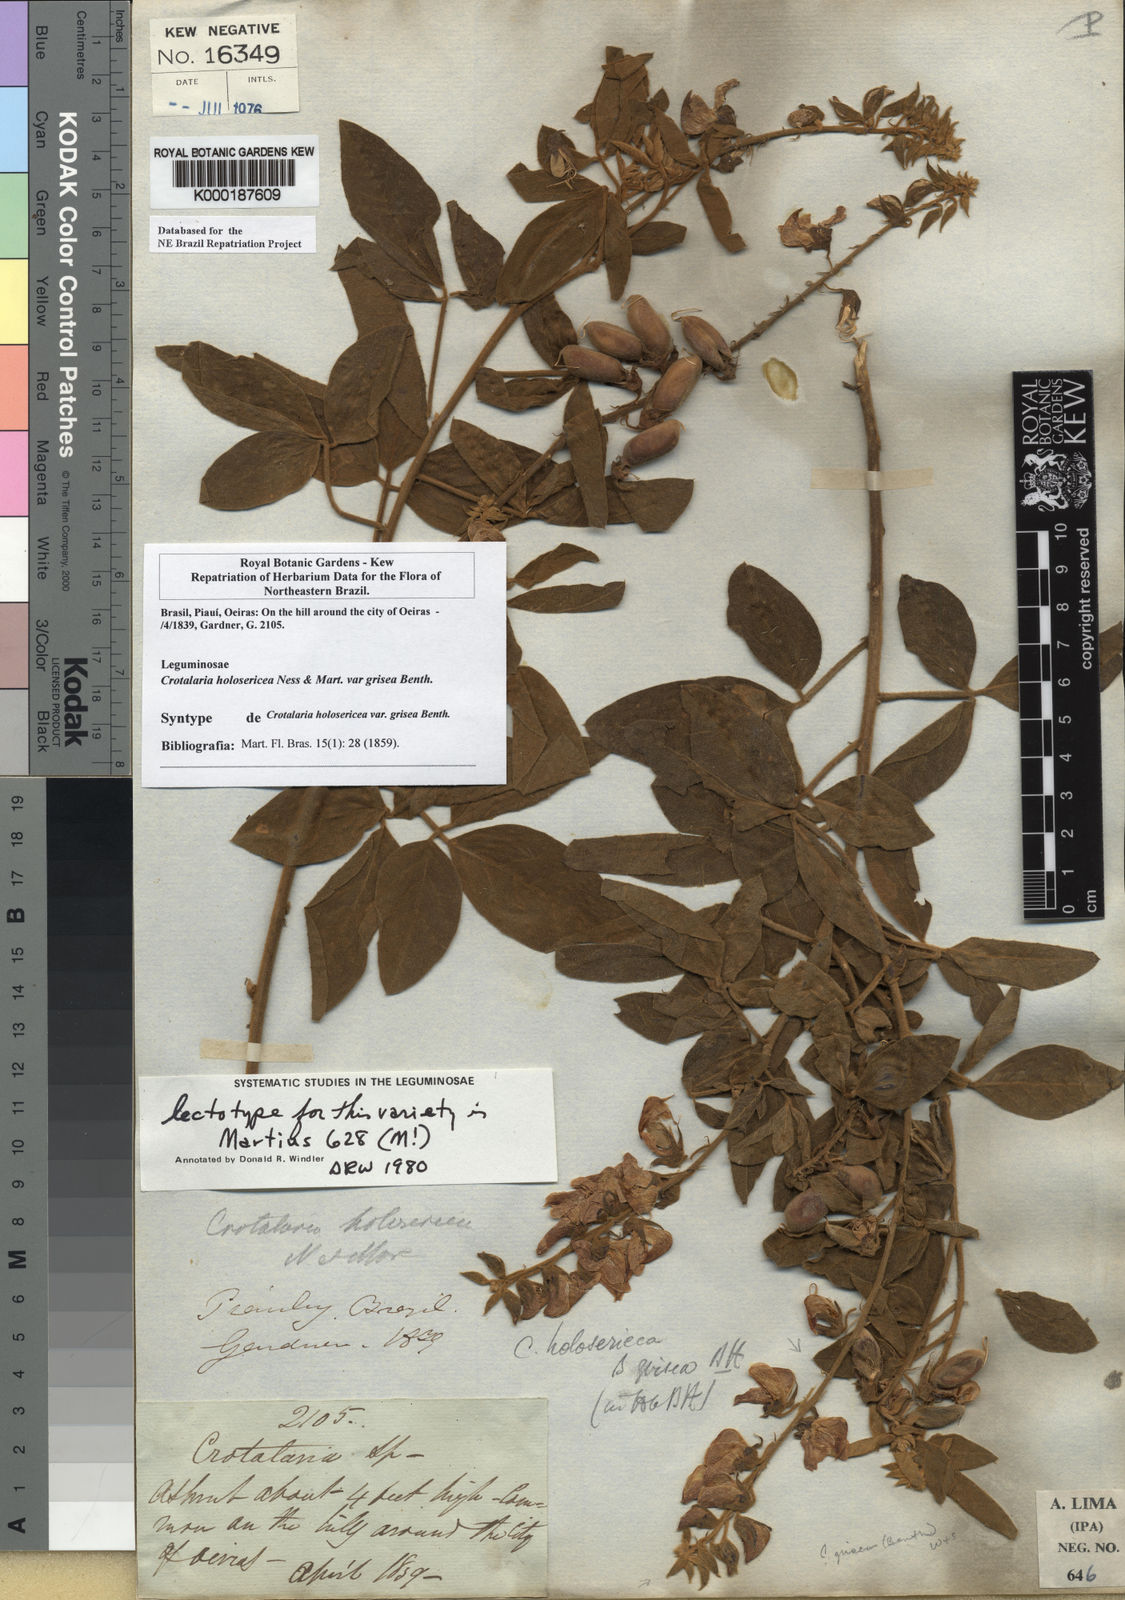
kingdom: Plantae
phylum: Tracheophyta
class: Magnoliopsida
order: Fabales
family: Fabaceae
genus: Crotalaria
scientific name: Crotalaria holosericea
